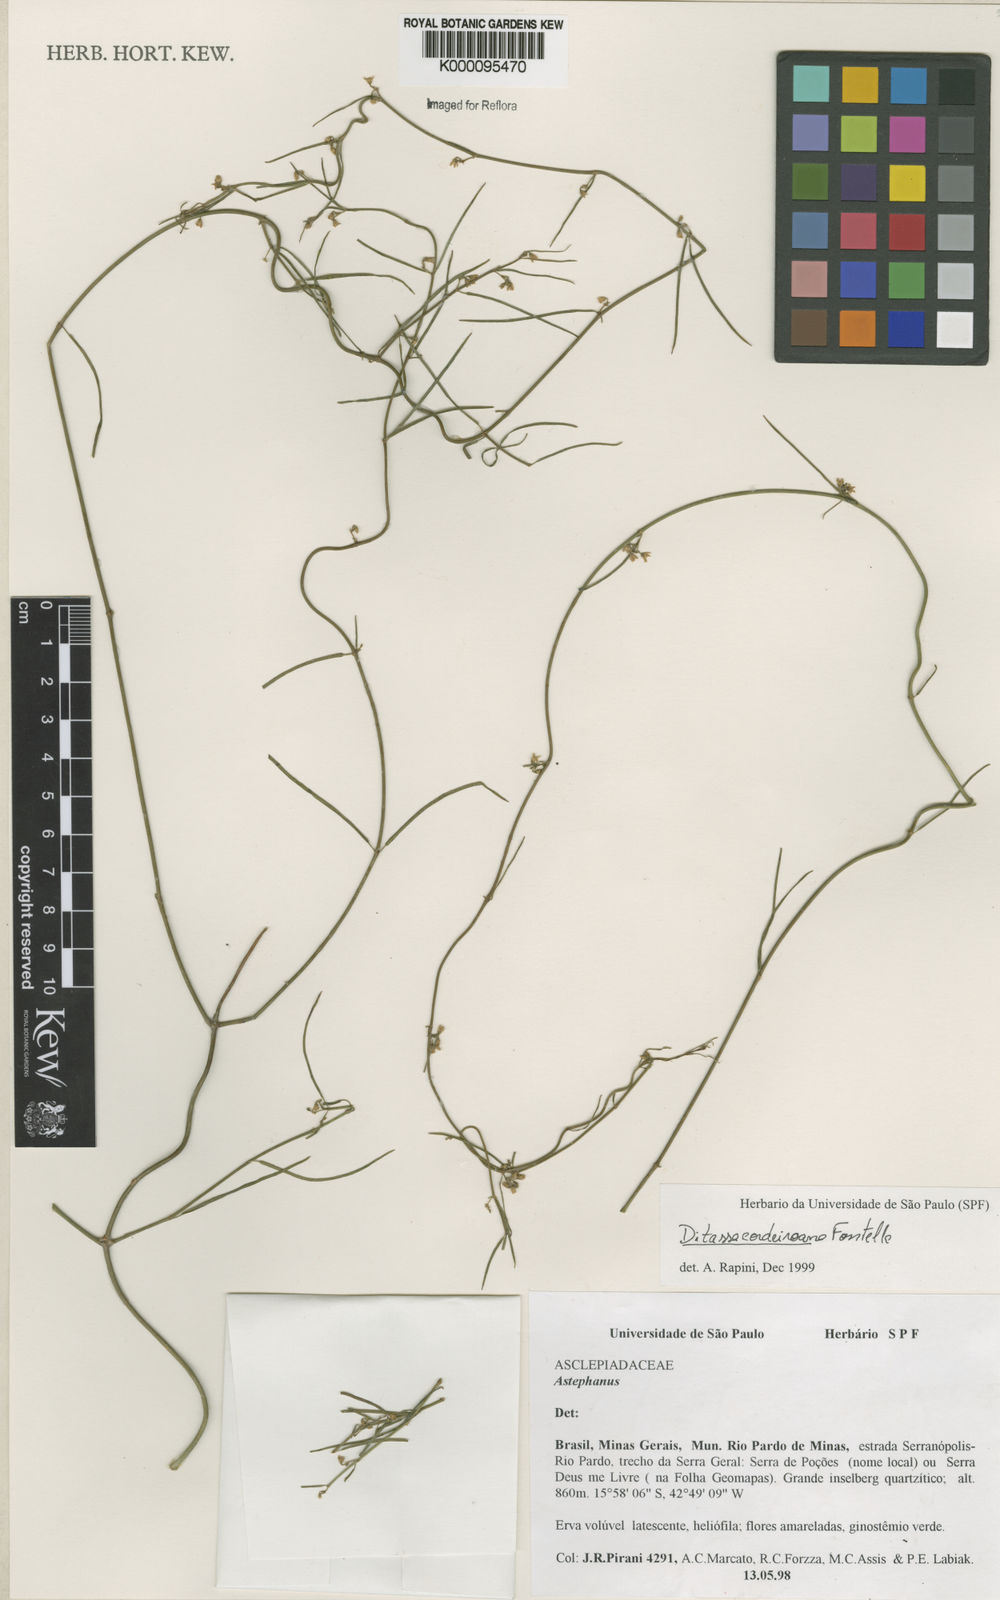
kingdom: Plantae
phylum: Tracheophyta
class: Magnoliopsida
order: Gentianales
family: Apocynaceae
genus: Ditassa
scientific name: Ditassa cordeiroana
